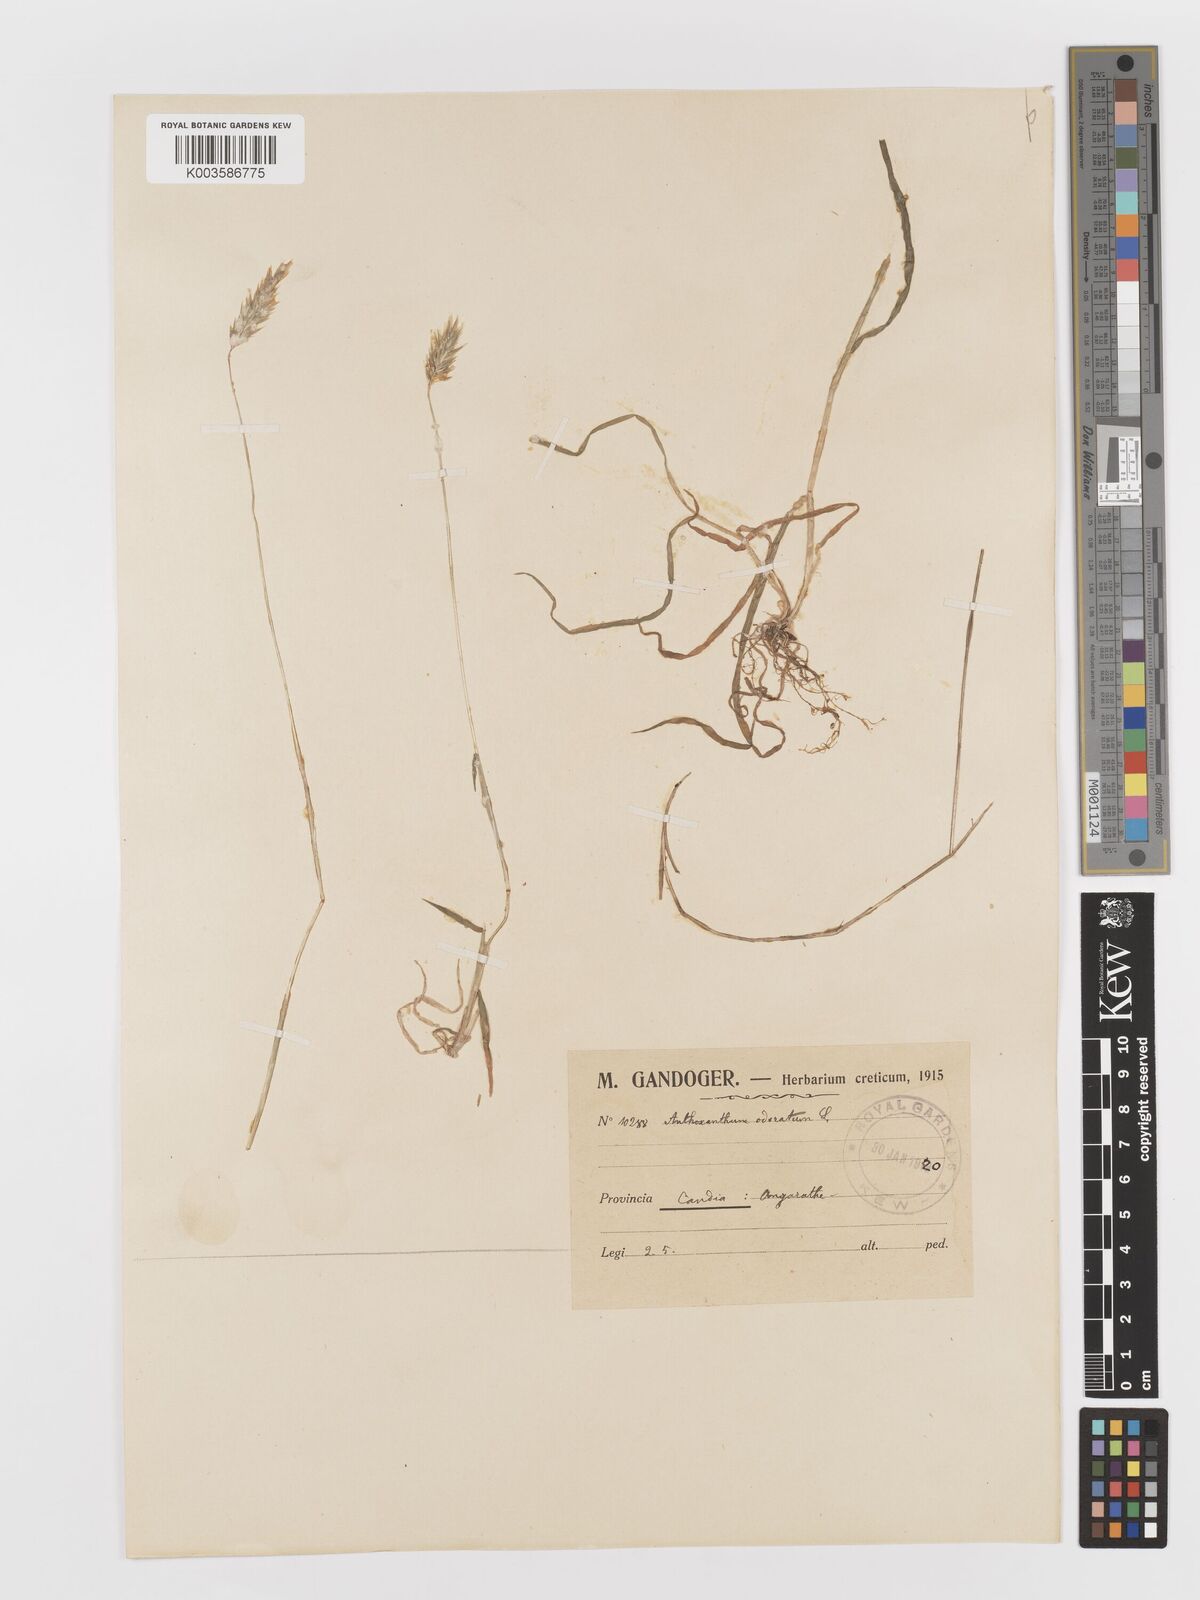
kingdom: Plantae
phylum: Tracheophyta
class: Liliopsida
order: Poales
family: Poaceae
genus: Anthoxanthum
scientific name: Anthoxanthum odoratum
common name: Sweet vernalgrass
